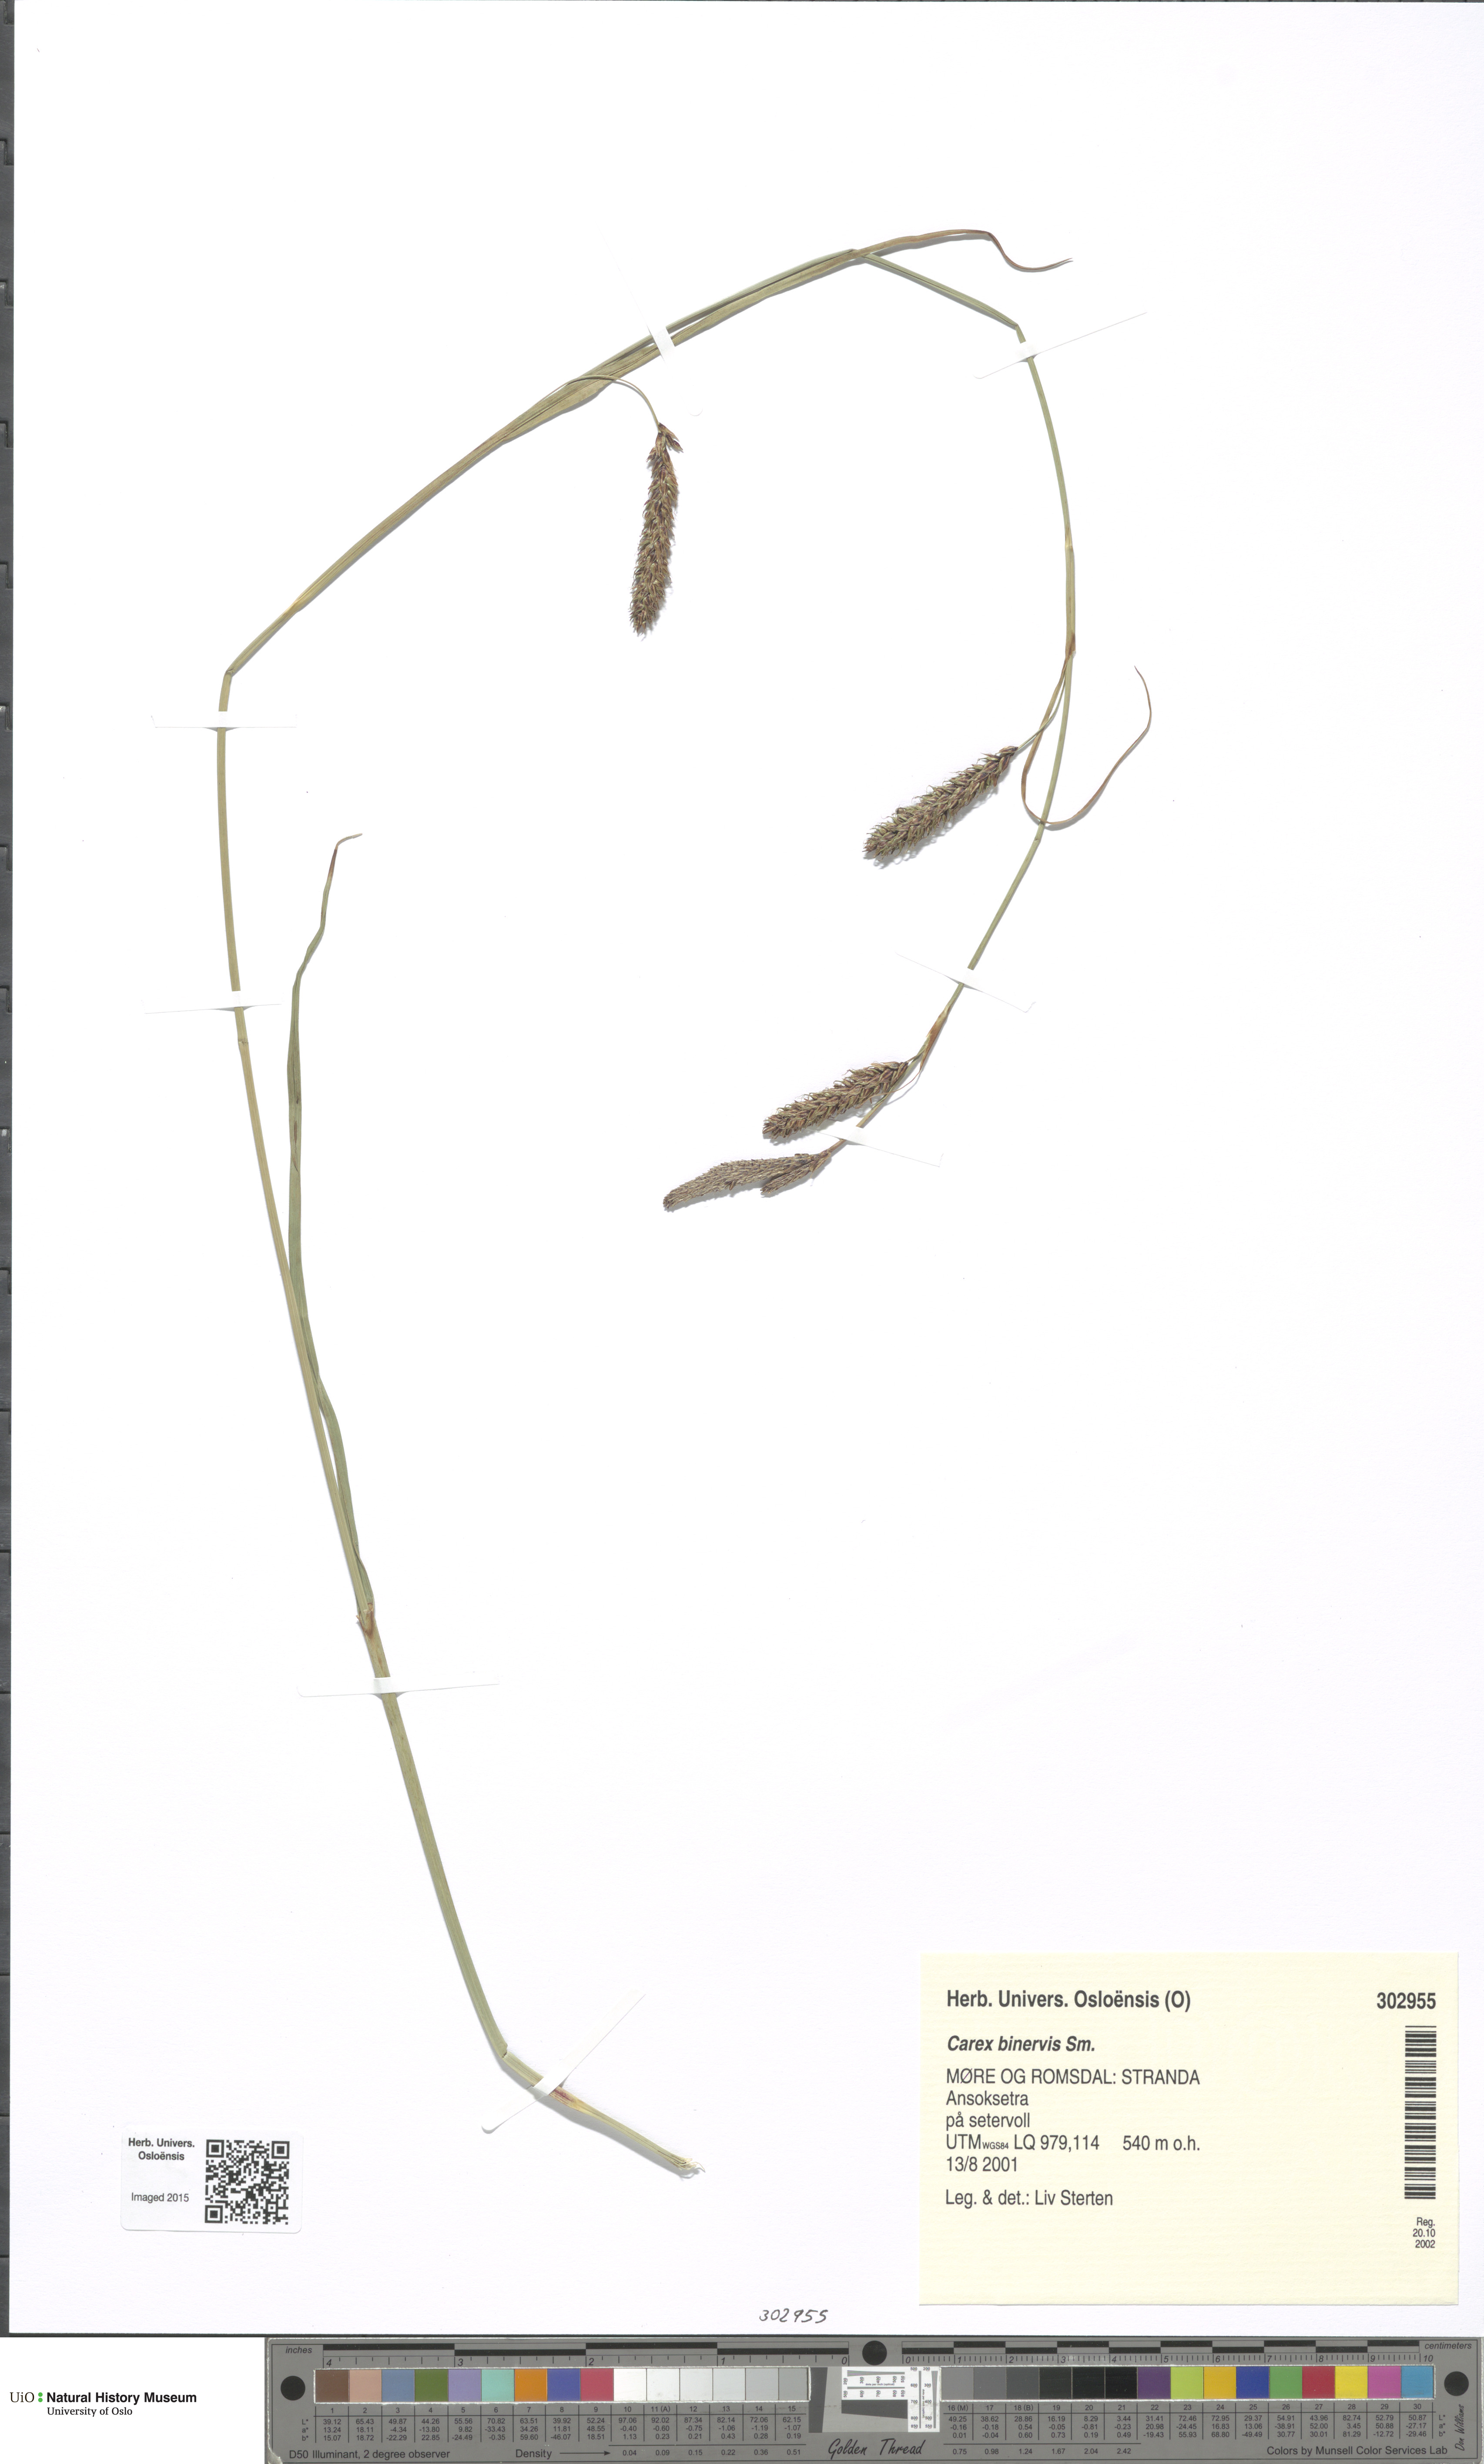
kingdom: Plantae
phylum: Tracheophyta
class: Liliopsida
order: Poales
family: Cyperaceae
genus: Carex
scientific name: Carex binervis
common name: Green-ribbed sedge
